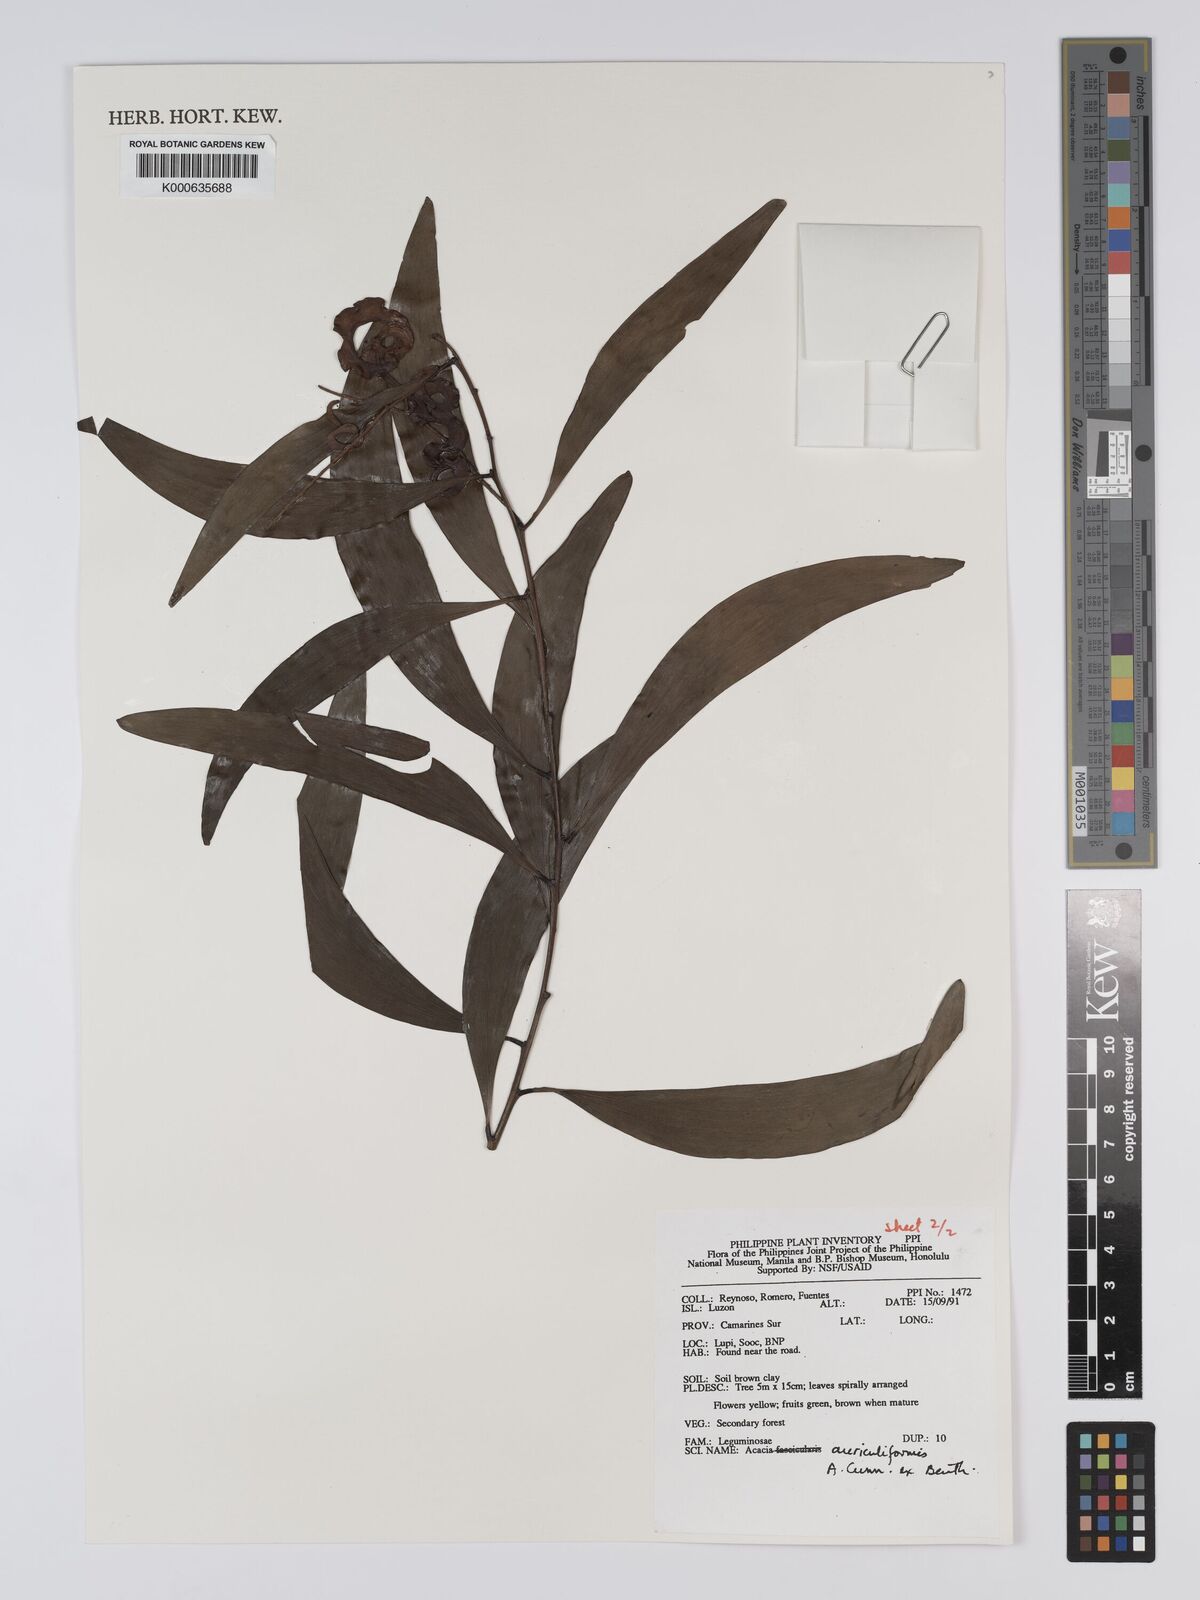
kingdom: Plantae
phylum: Tracheophyta
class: Magnoliopsida
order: Fabales
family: Fabaceae
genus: Acacia
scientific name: Acacia auriculiformis
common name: Earleaf acacia
